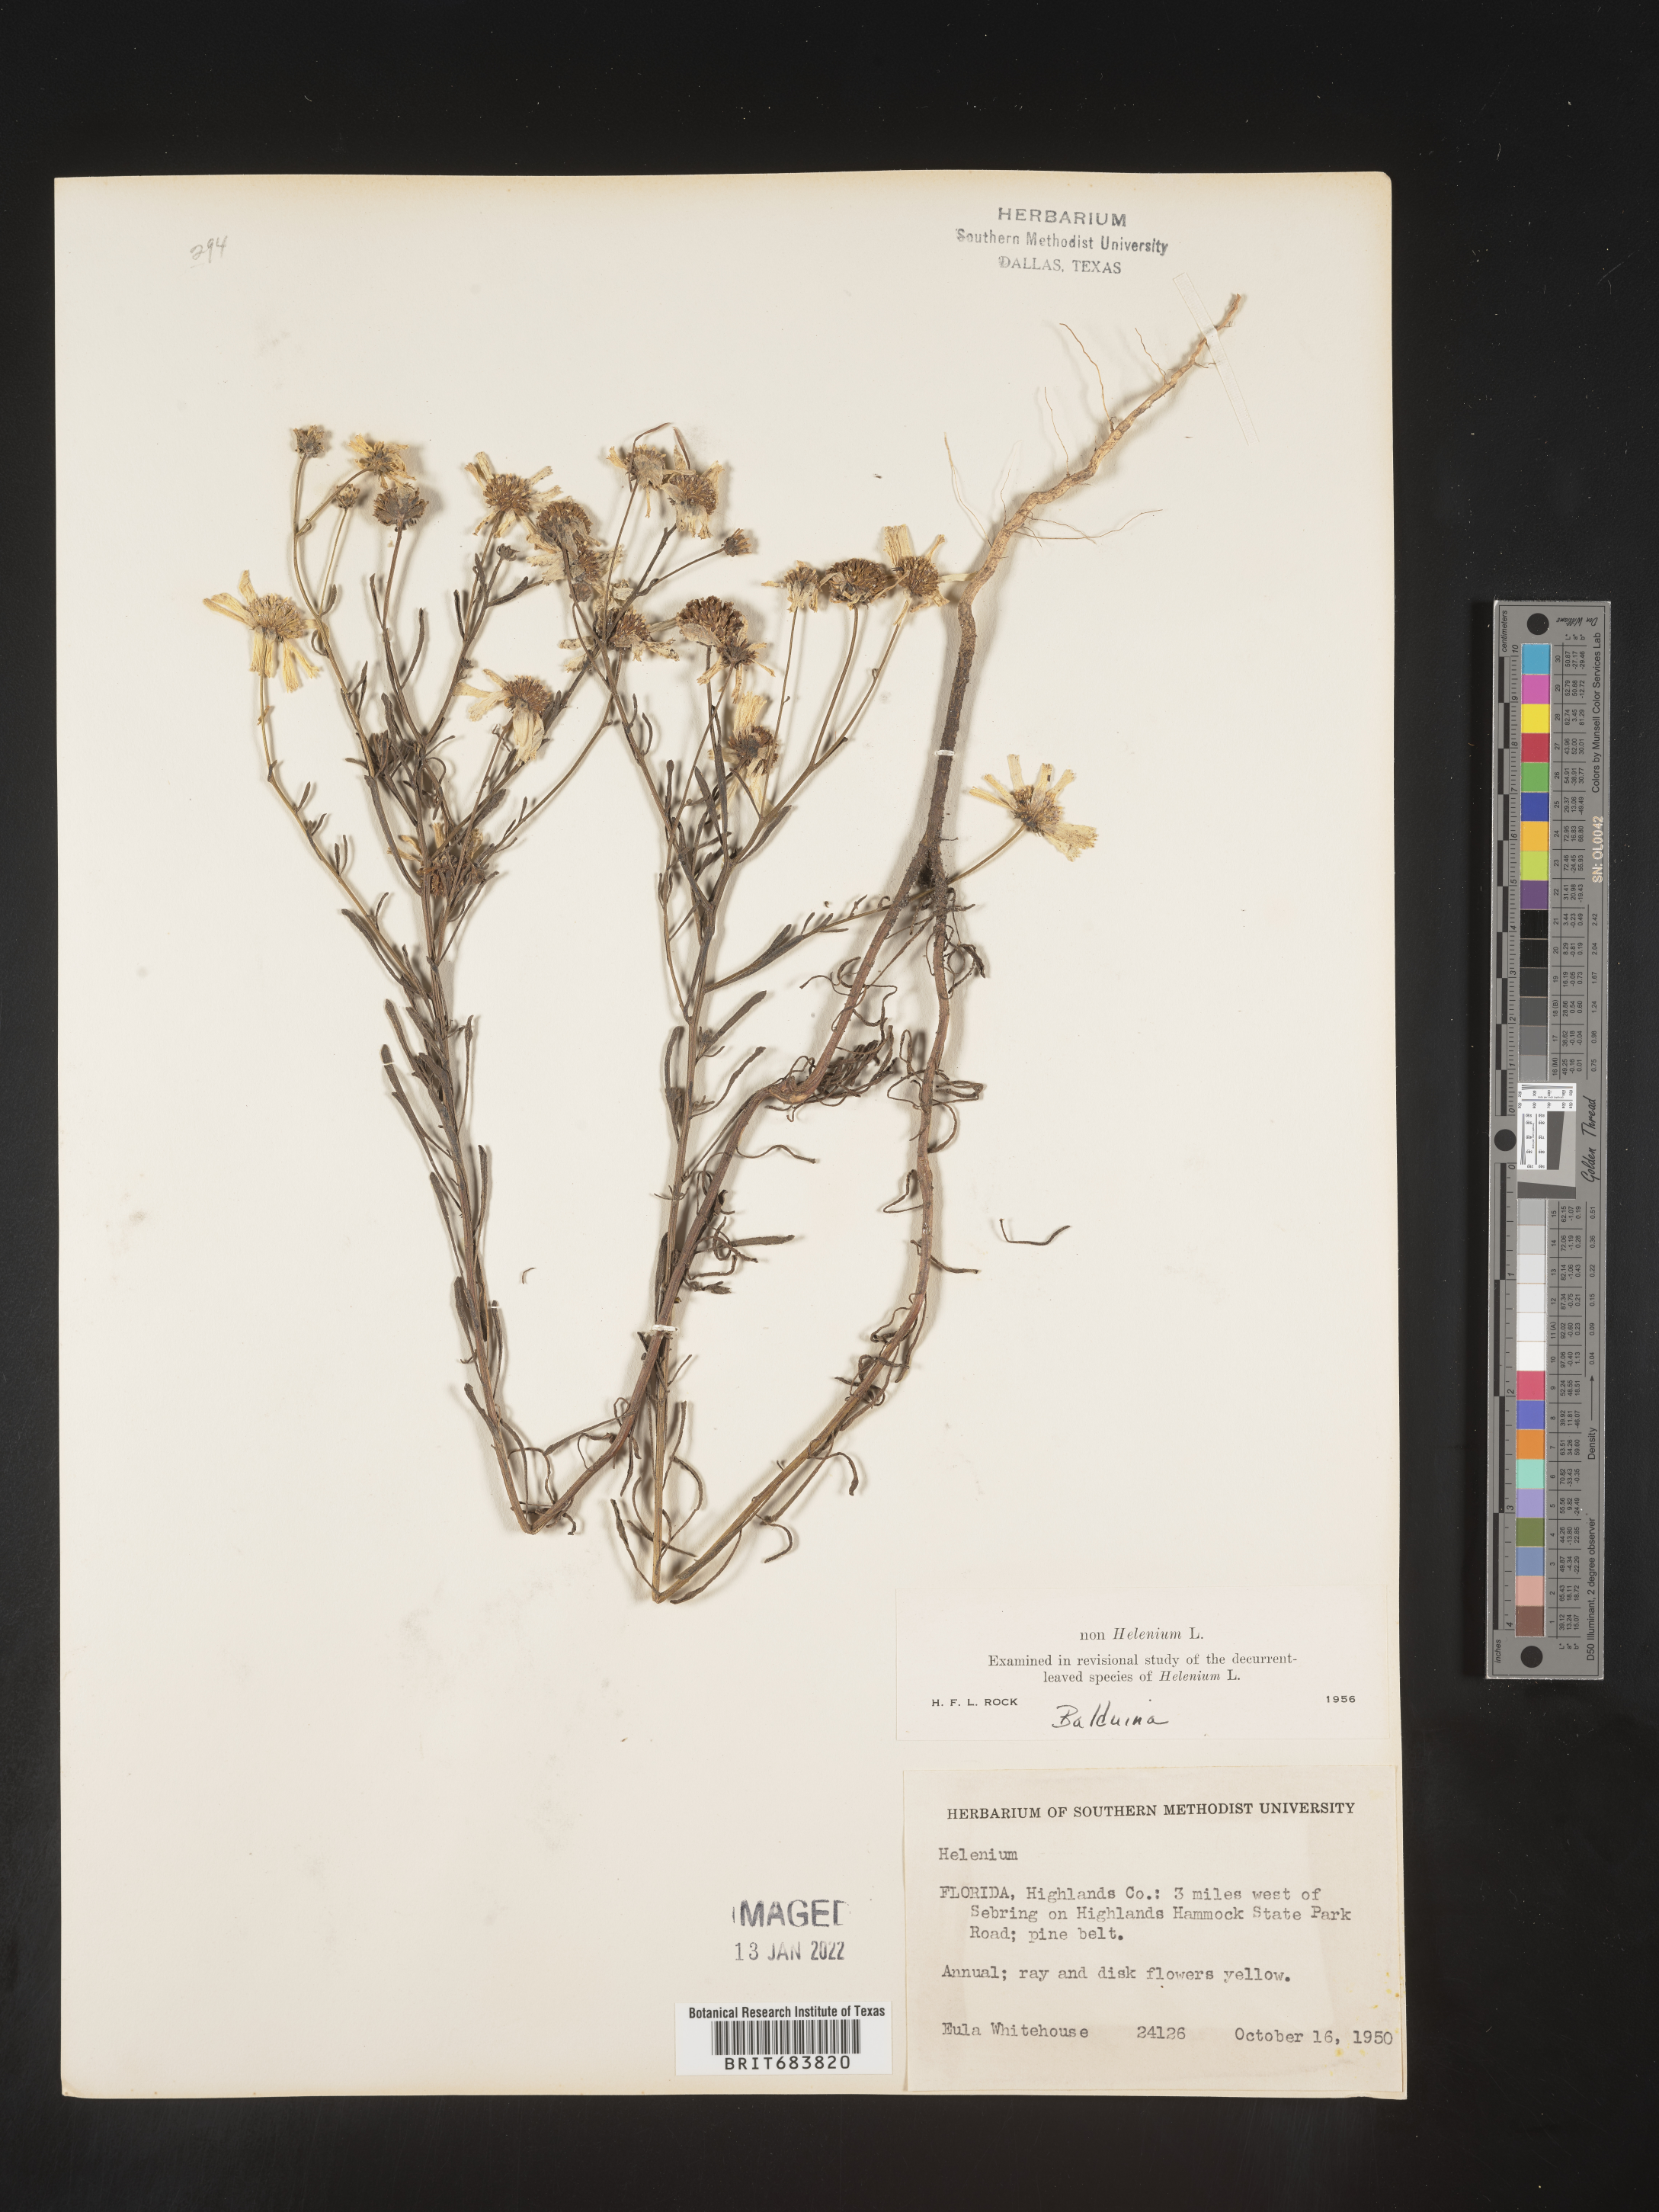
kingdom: Plantae
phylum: Tracheophyta
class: Magnoliopsida
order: Asterales
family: Asteraceae
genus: Balduina
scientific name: Balduina angustifolia
